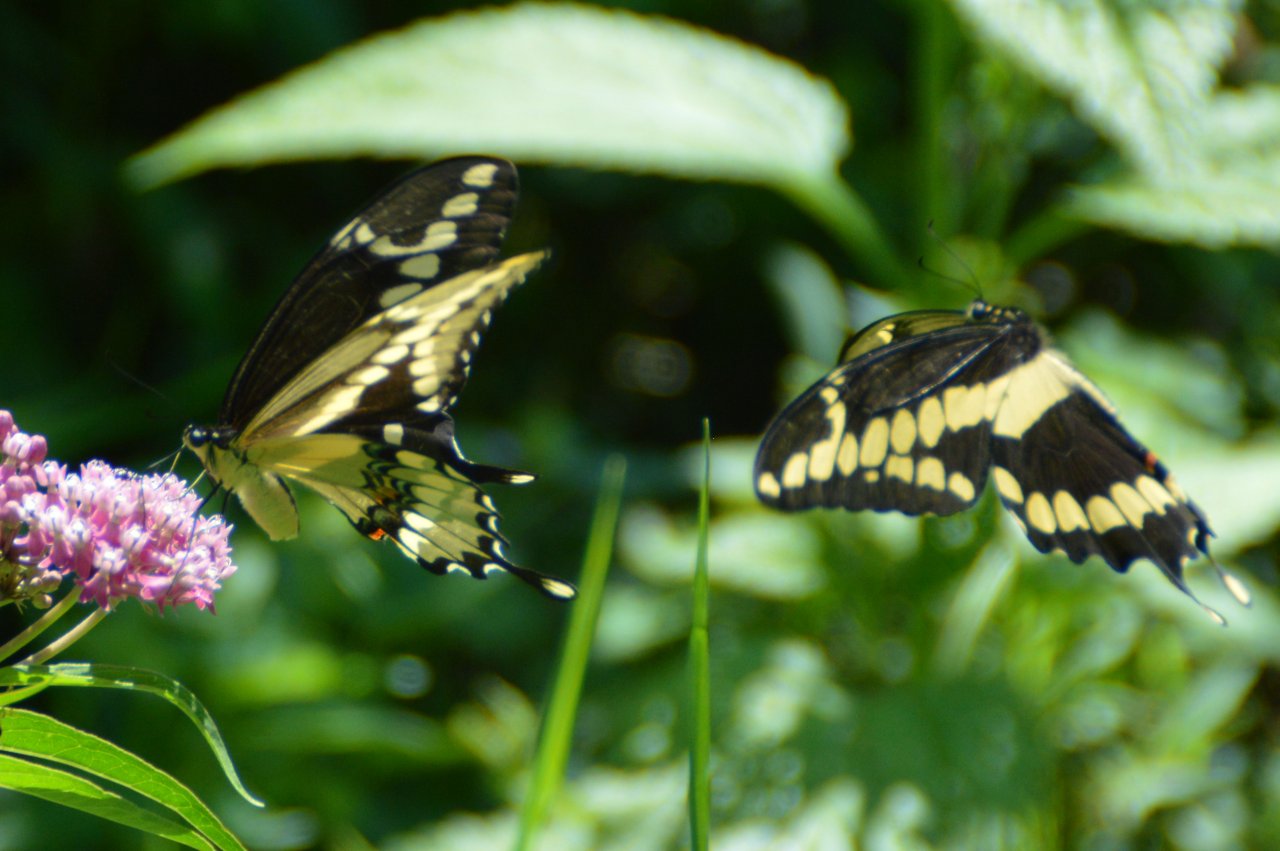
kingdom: Animalia
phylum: Arthropoda
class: Insecta
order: Lepidoptera
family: Papilionidae
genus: Papilio
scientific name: Papilio cresphontes
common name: Eastern Giant Swallowtail
